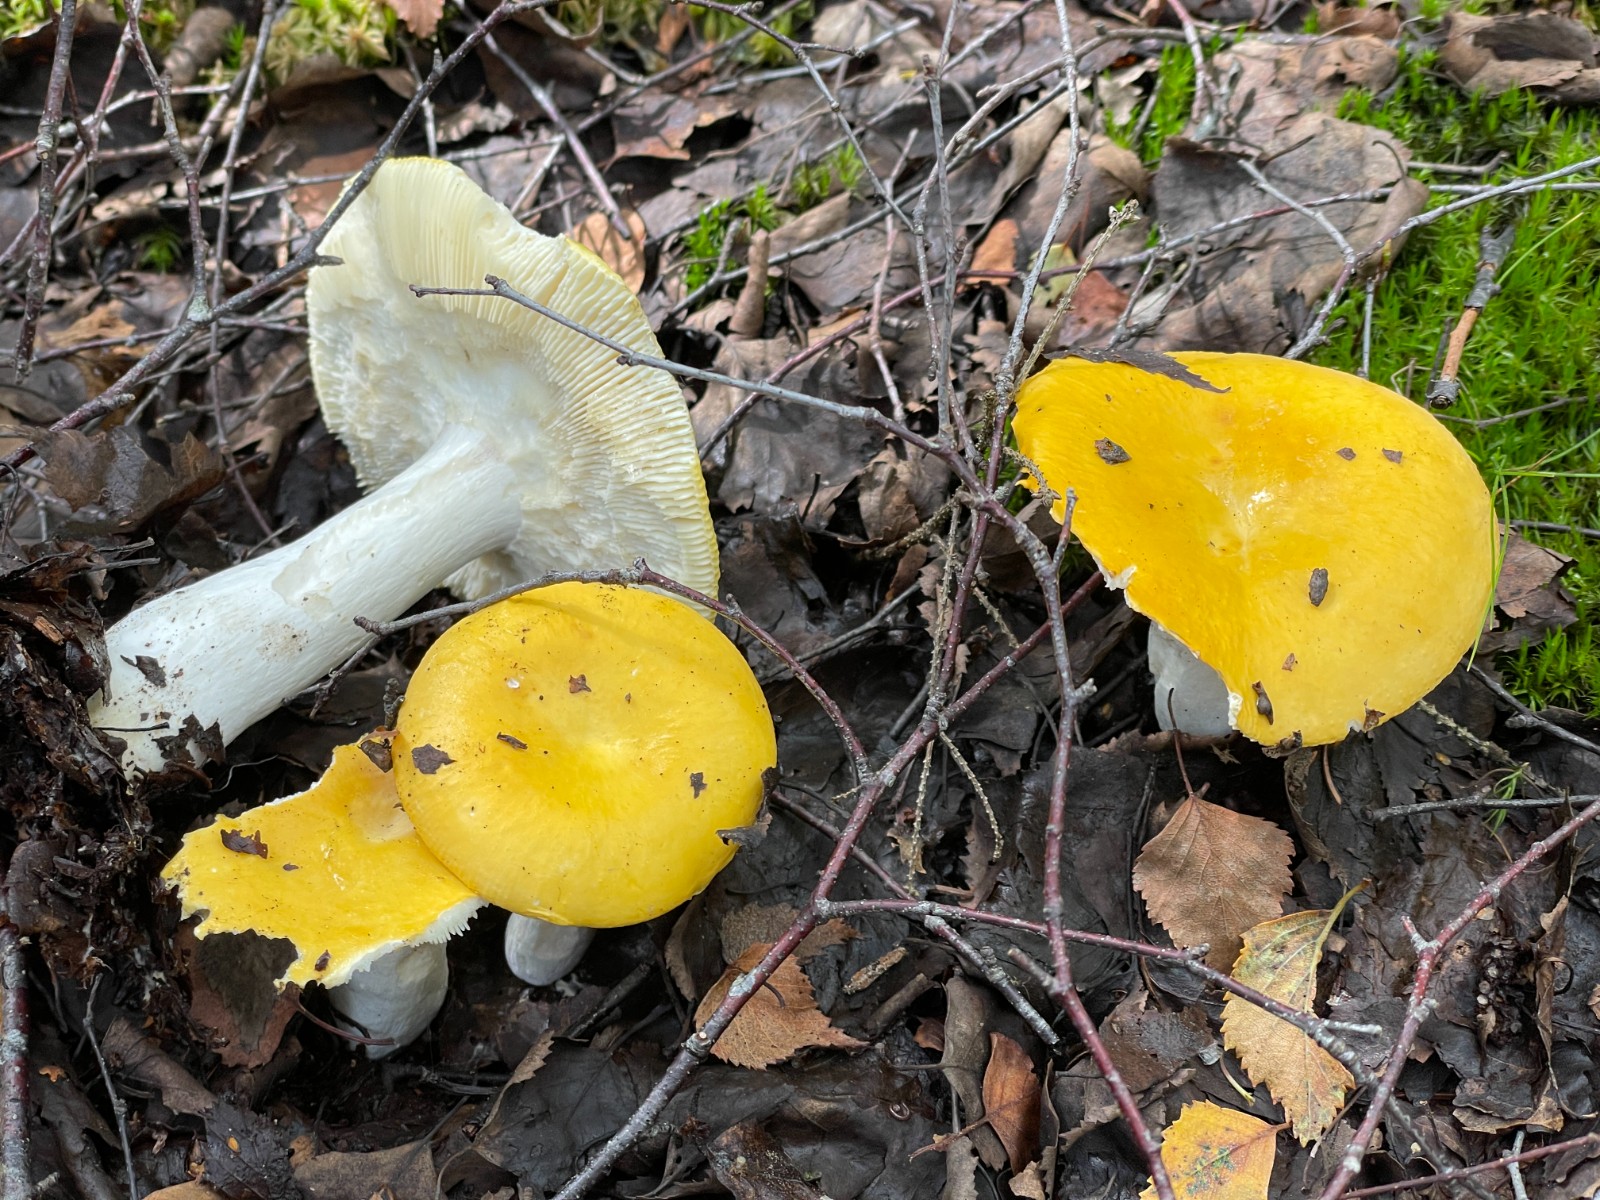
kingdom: Fungi
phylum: Basidiomycota
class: Agaricomycetes
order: Russulales
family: Russulaceae
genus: Russula
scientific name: Russula claroflava
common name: birke-skørhat
